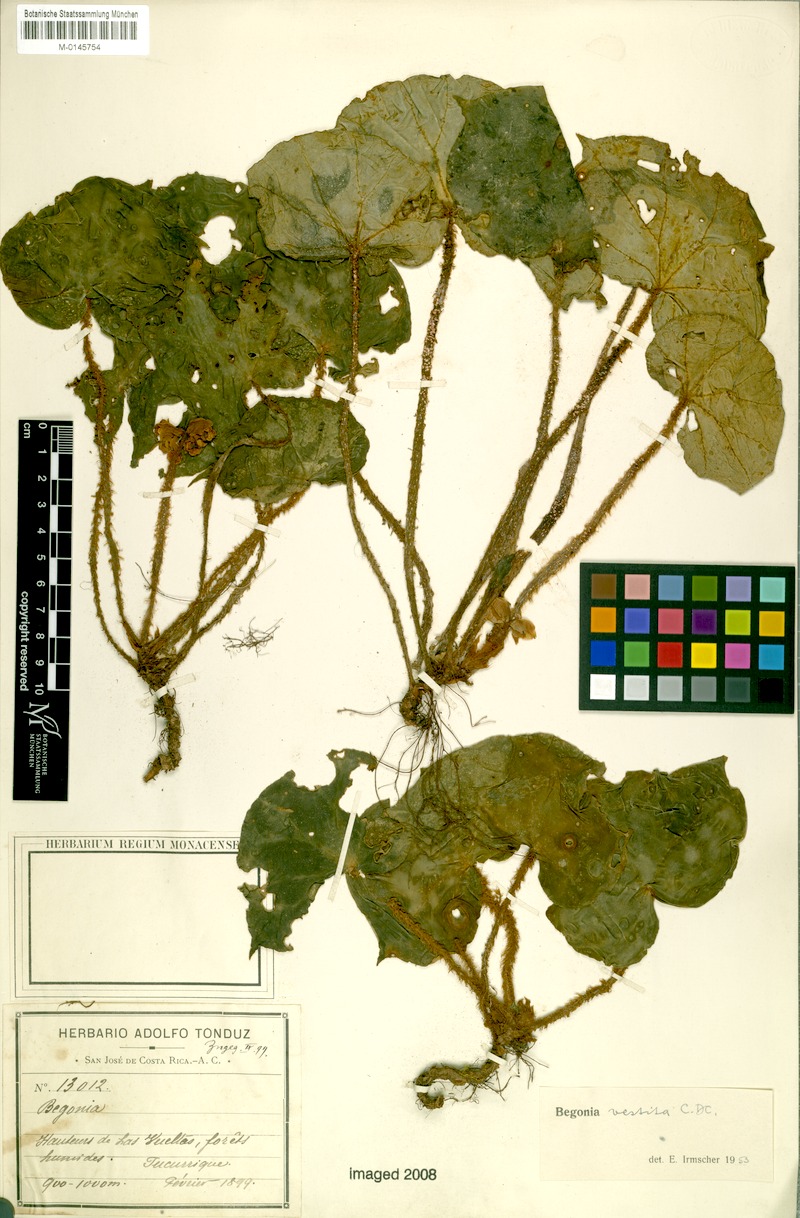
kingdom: Plantae
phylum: Tracheophyta
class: Magnoliopsida
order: Cucurbitales
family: Begoniaceae
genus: Begonia
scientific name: Begonia vestita
